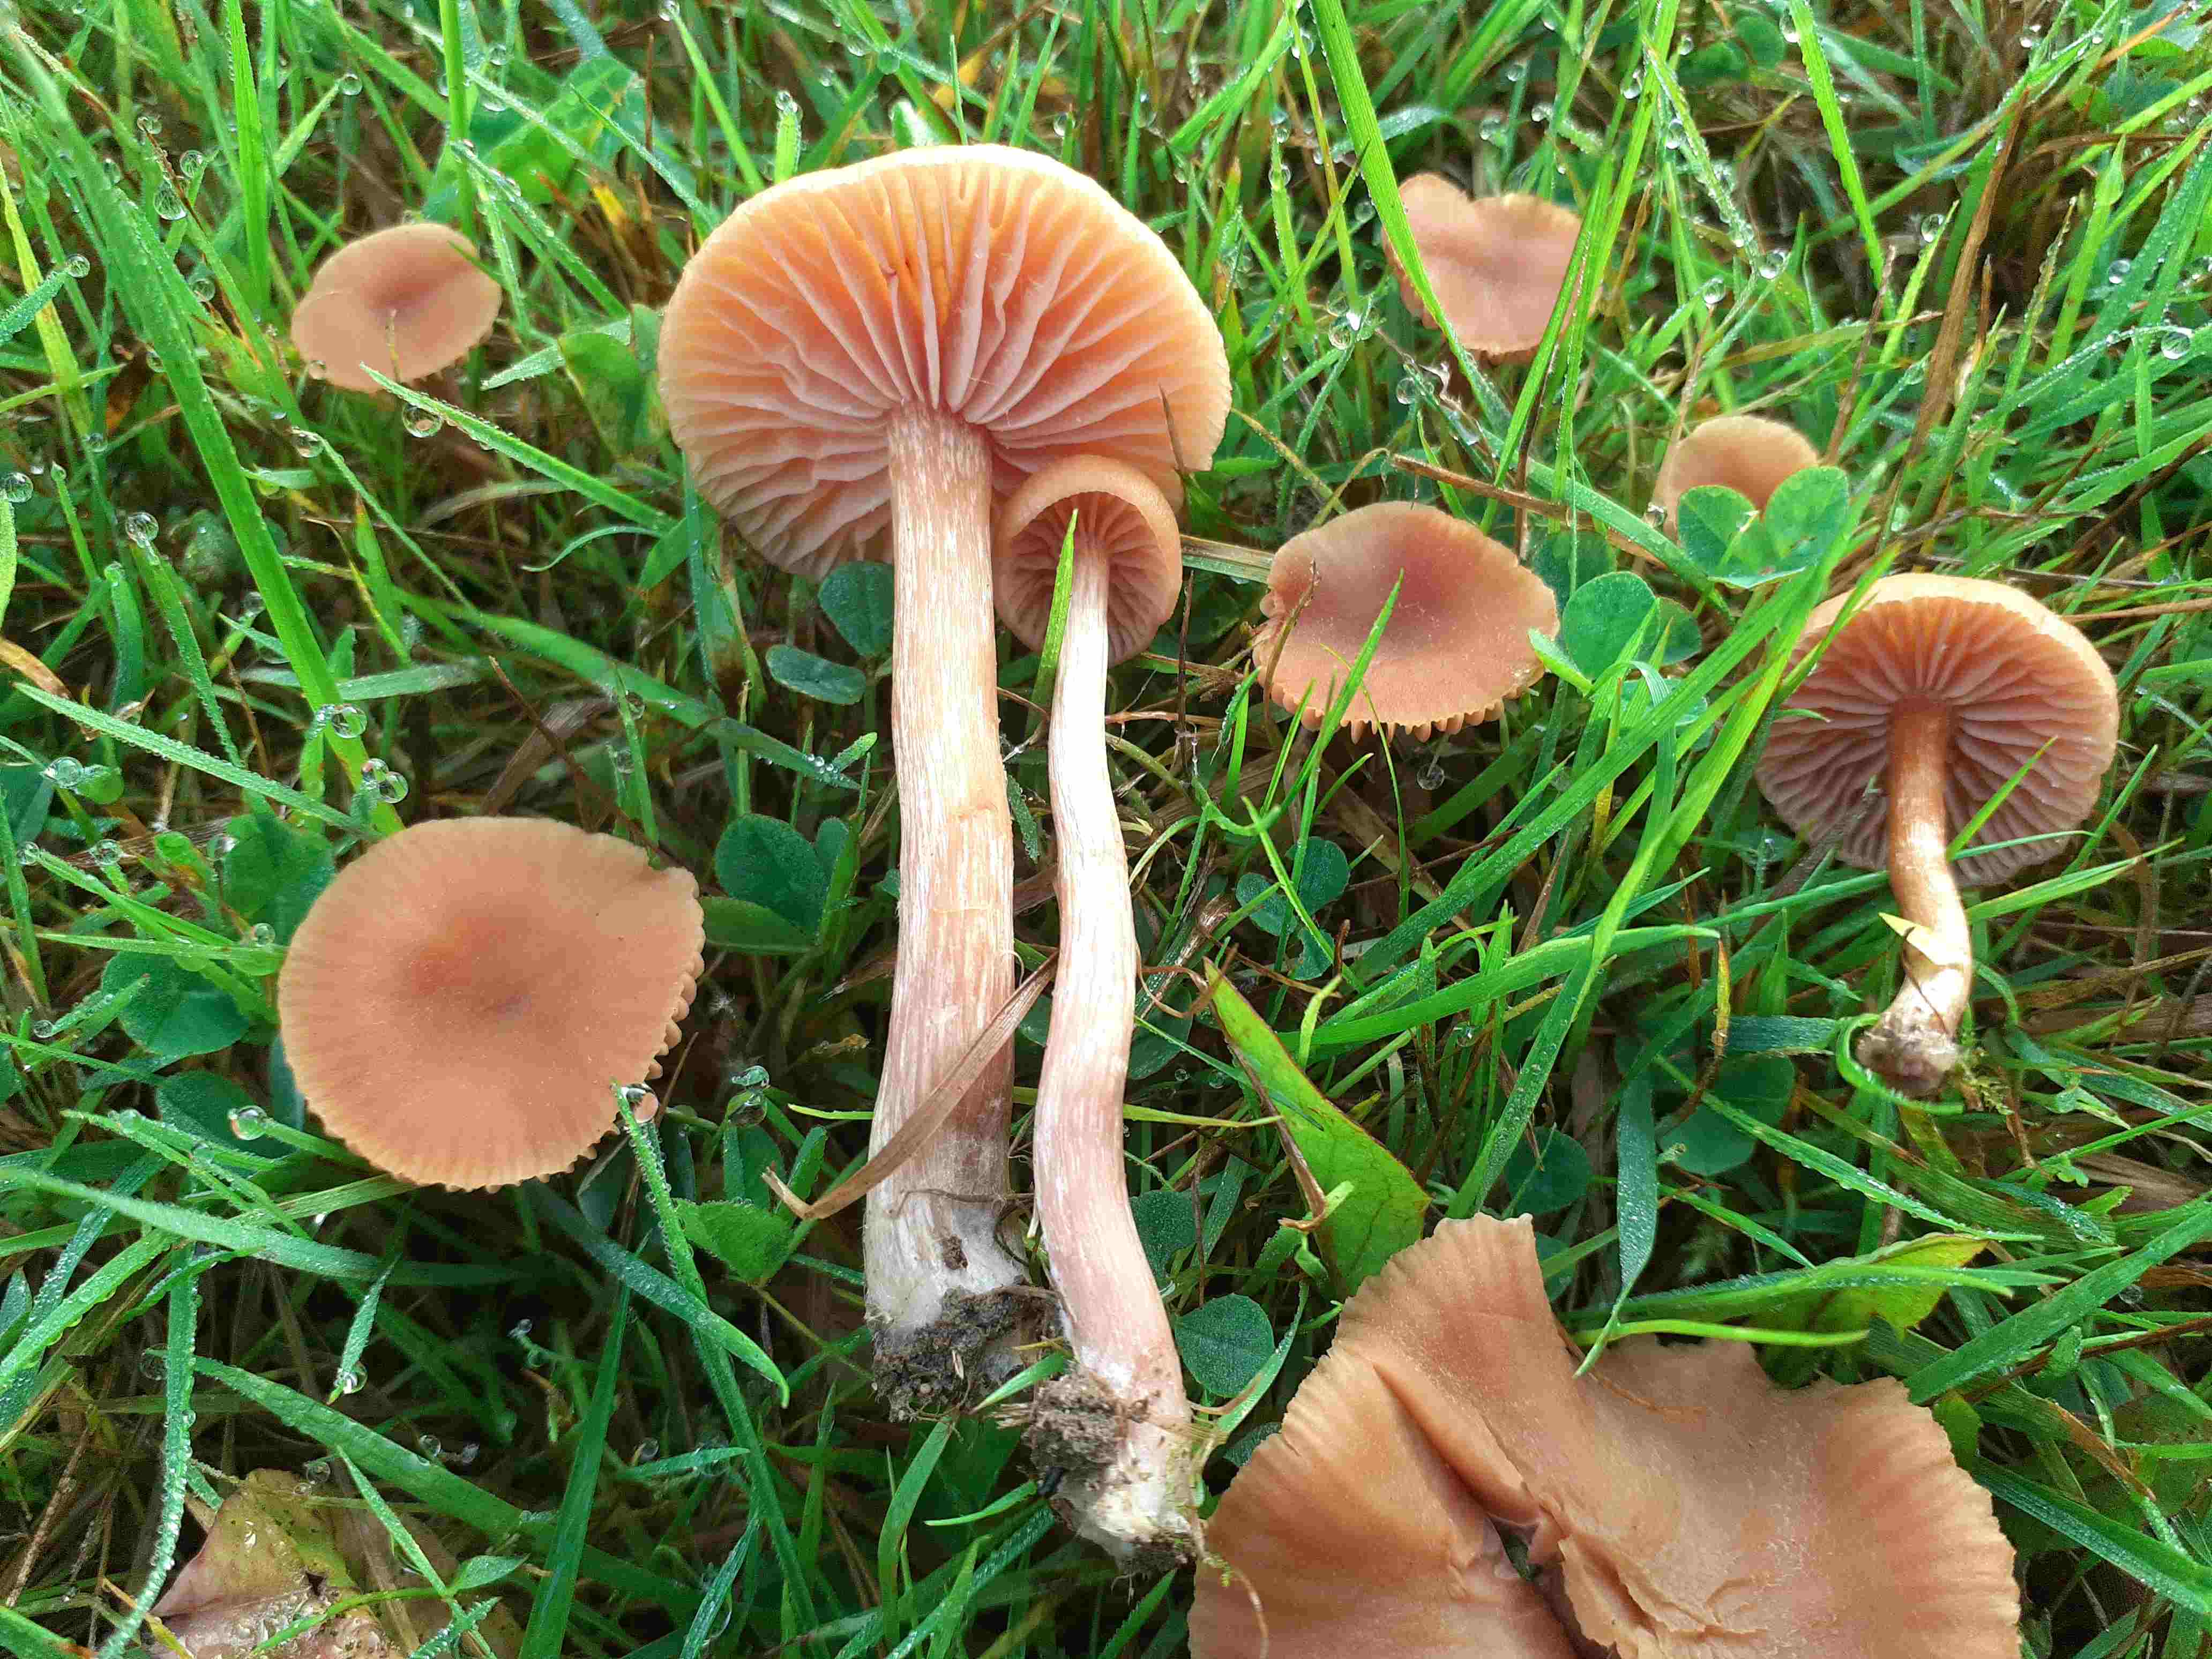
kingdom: Fungi
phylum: Basidiomycota
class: Agaricomycetes
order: Agaricales
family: Hydnangiaceae
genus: Laccaria
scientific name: Laccaria laccata
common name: rød ametysthat
